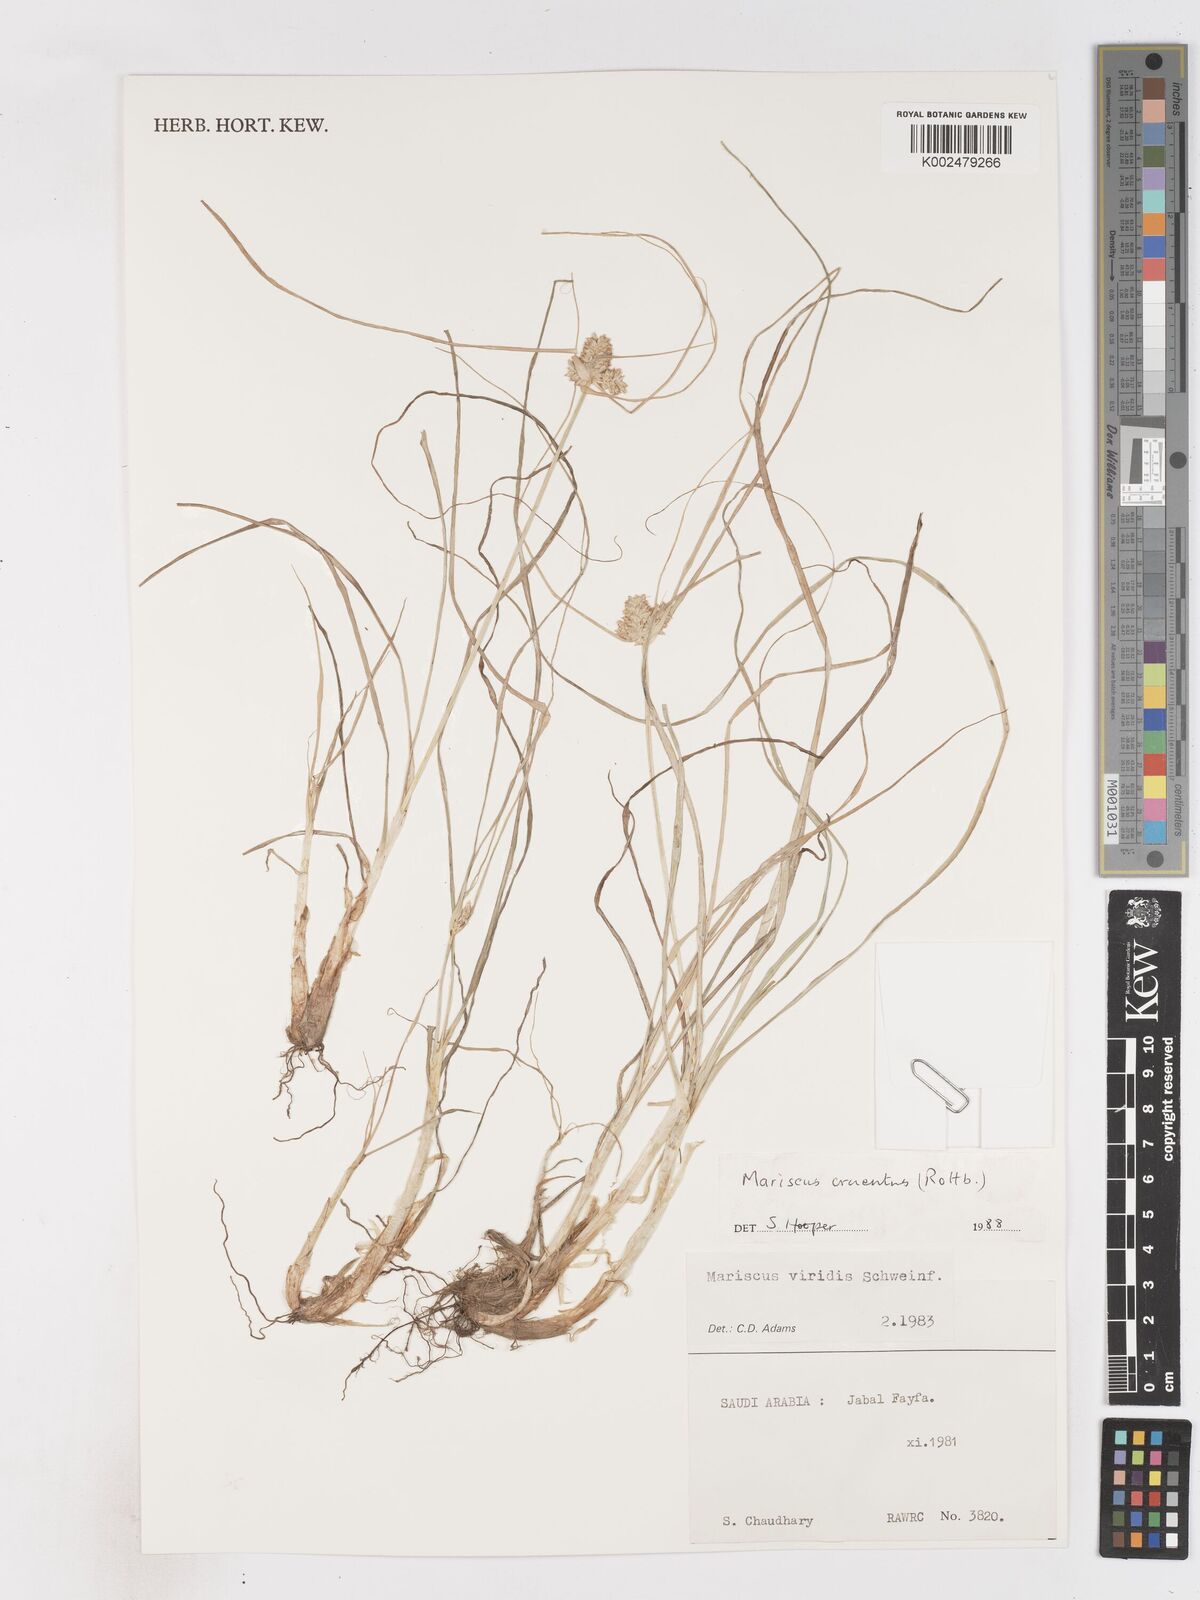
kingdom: Plantae
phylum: Tracheophyta
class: Liliopsida
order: Poales
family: Cyperaceae
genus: Cyperus
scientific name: Cyperus cruentus
